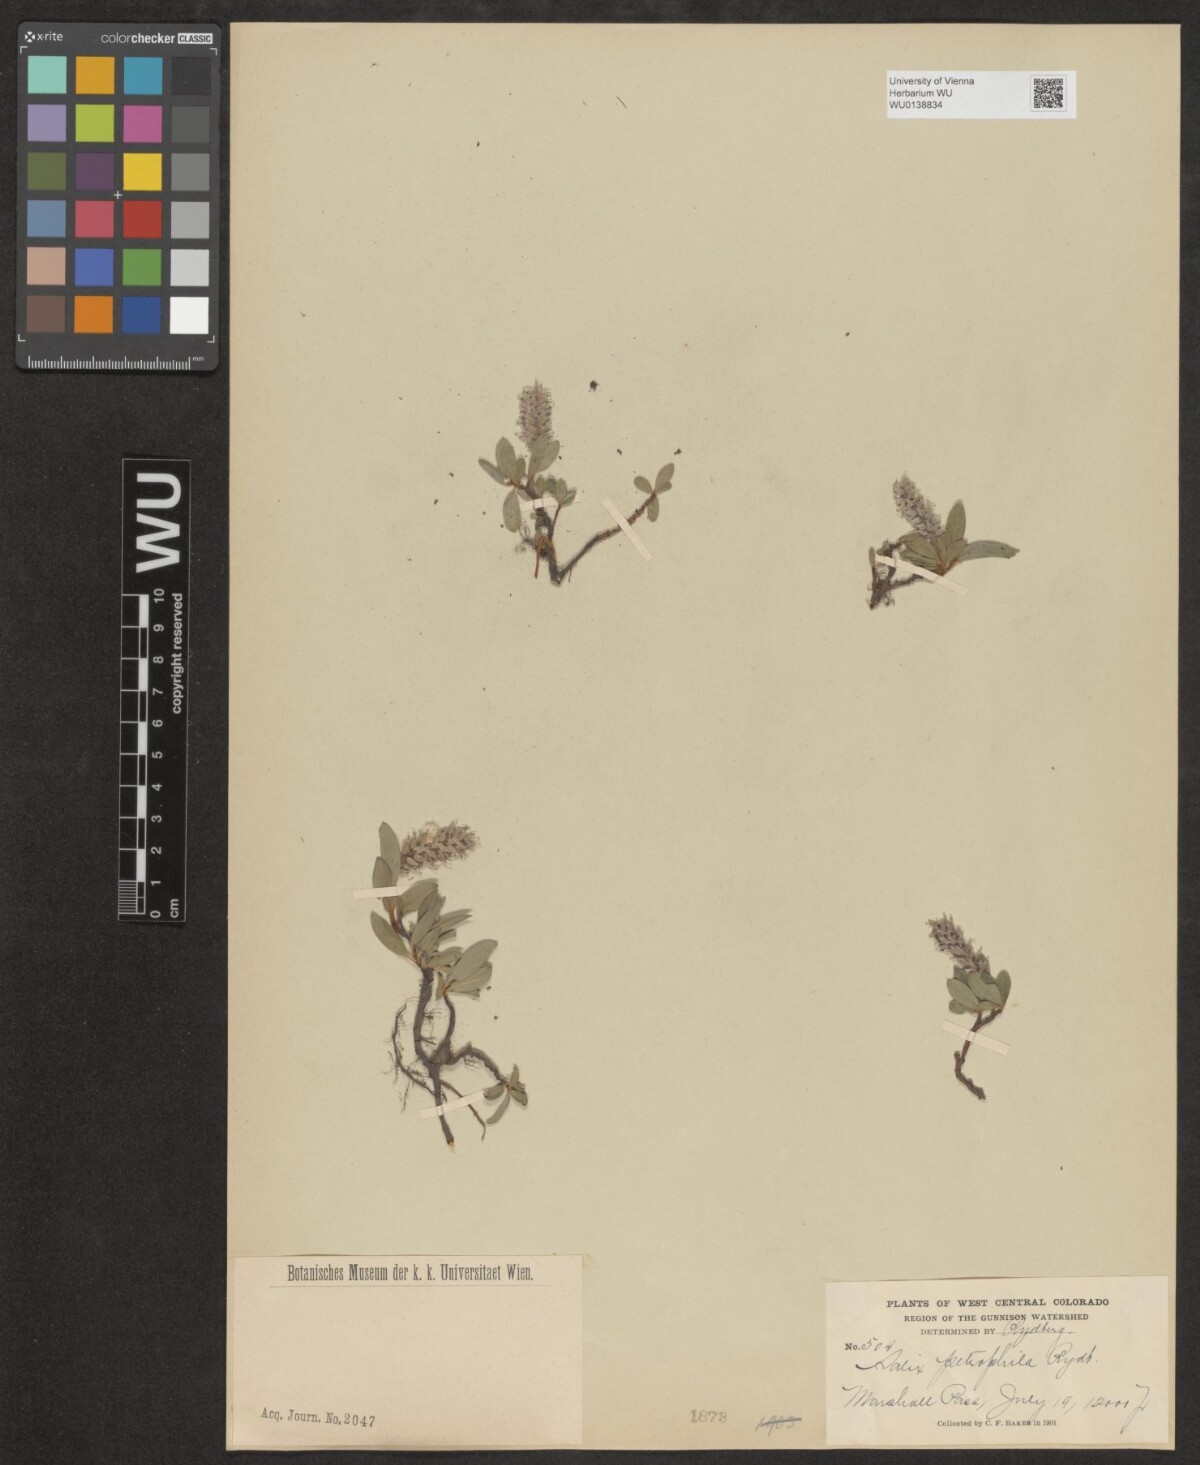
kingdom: Plantae
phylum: Tracheophyta
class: Magnoliopsida
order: Malpighiales
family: Salicaceae
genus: Salix
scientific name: Salix petrophila
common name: Rocky mountain willow
